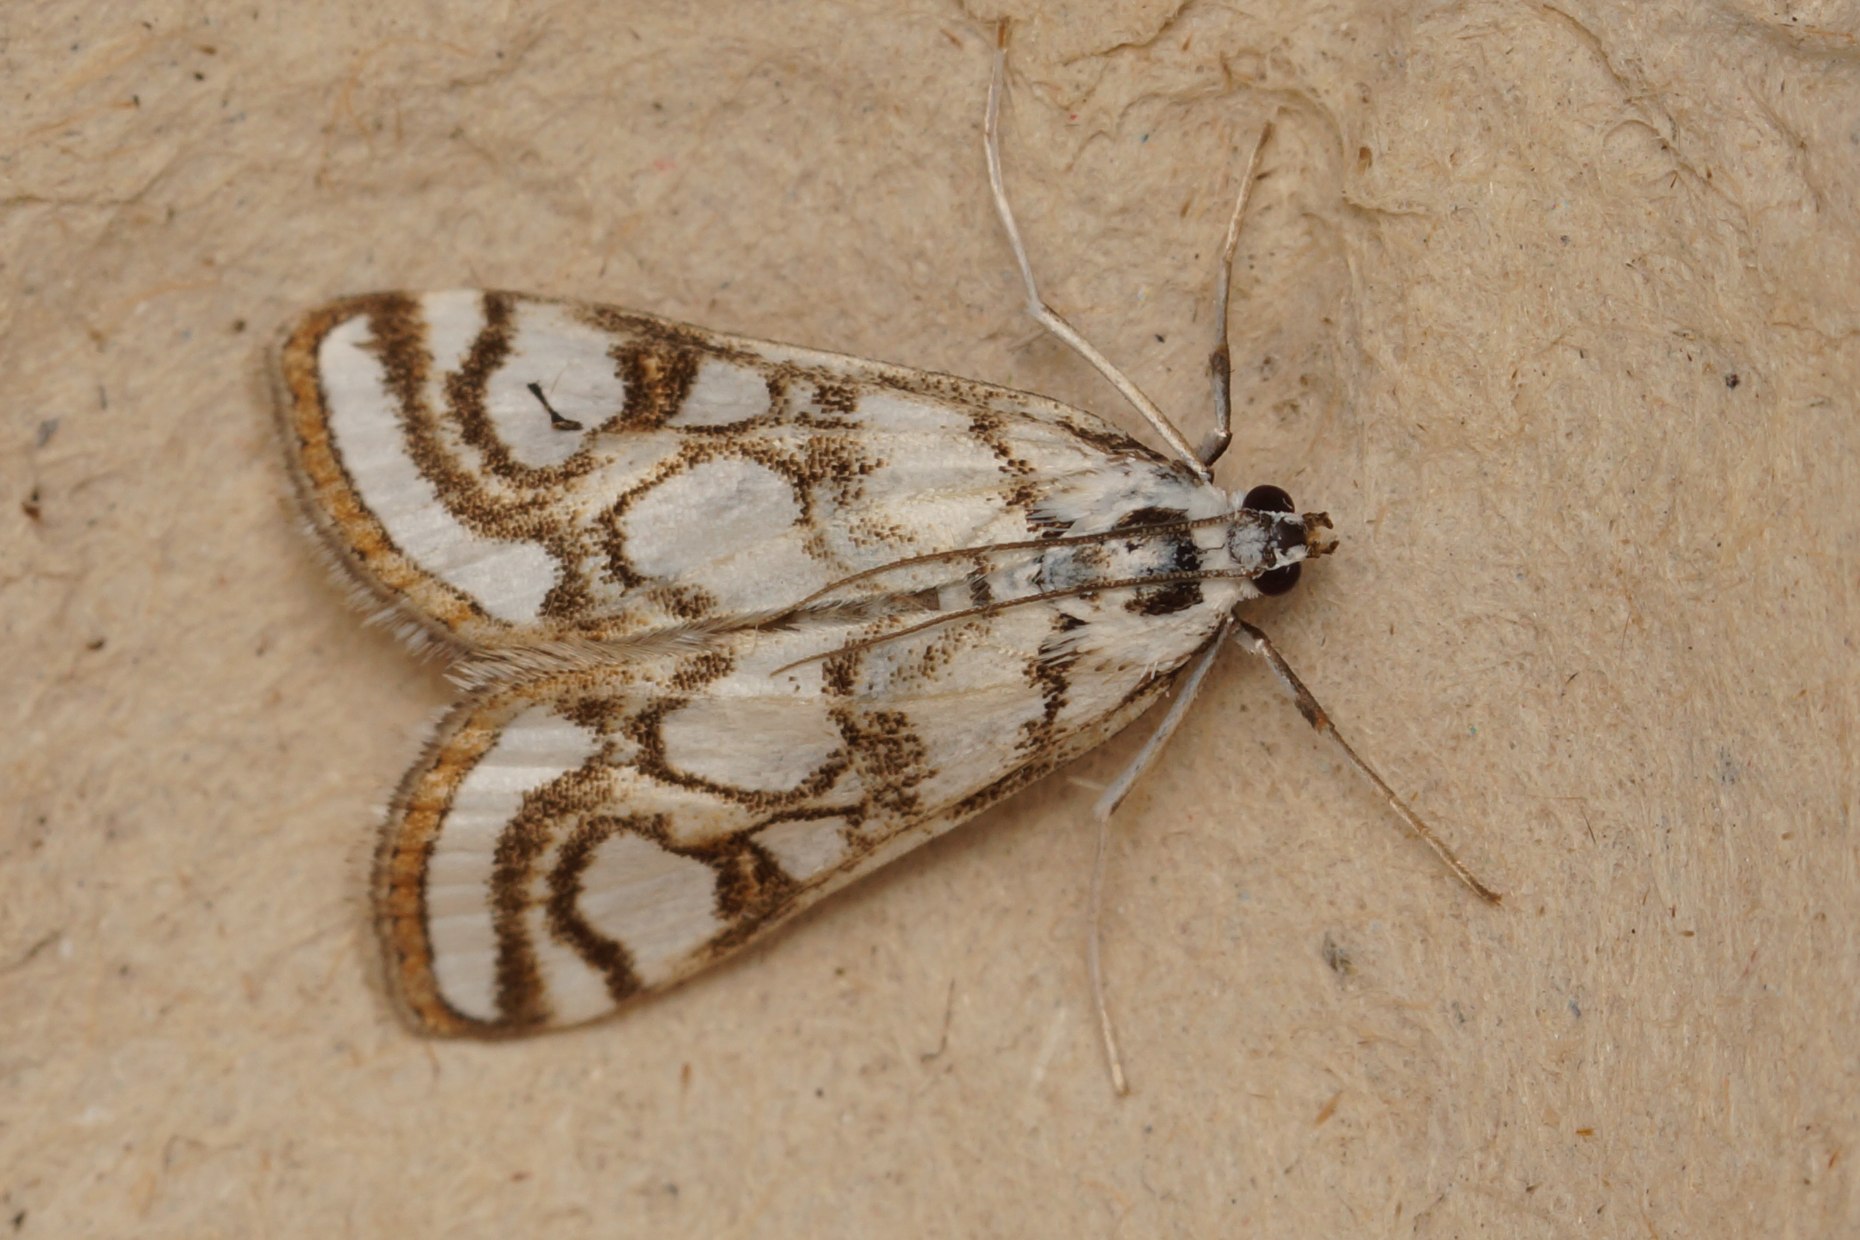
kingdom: Animalia
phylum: Arthropoda
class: Insecta
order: Lepidoptera
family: Crambidae
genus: Nymphula
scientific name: Nymphula nitidulata
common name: Lille porcelænsmøl
